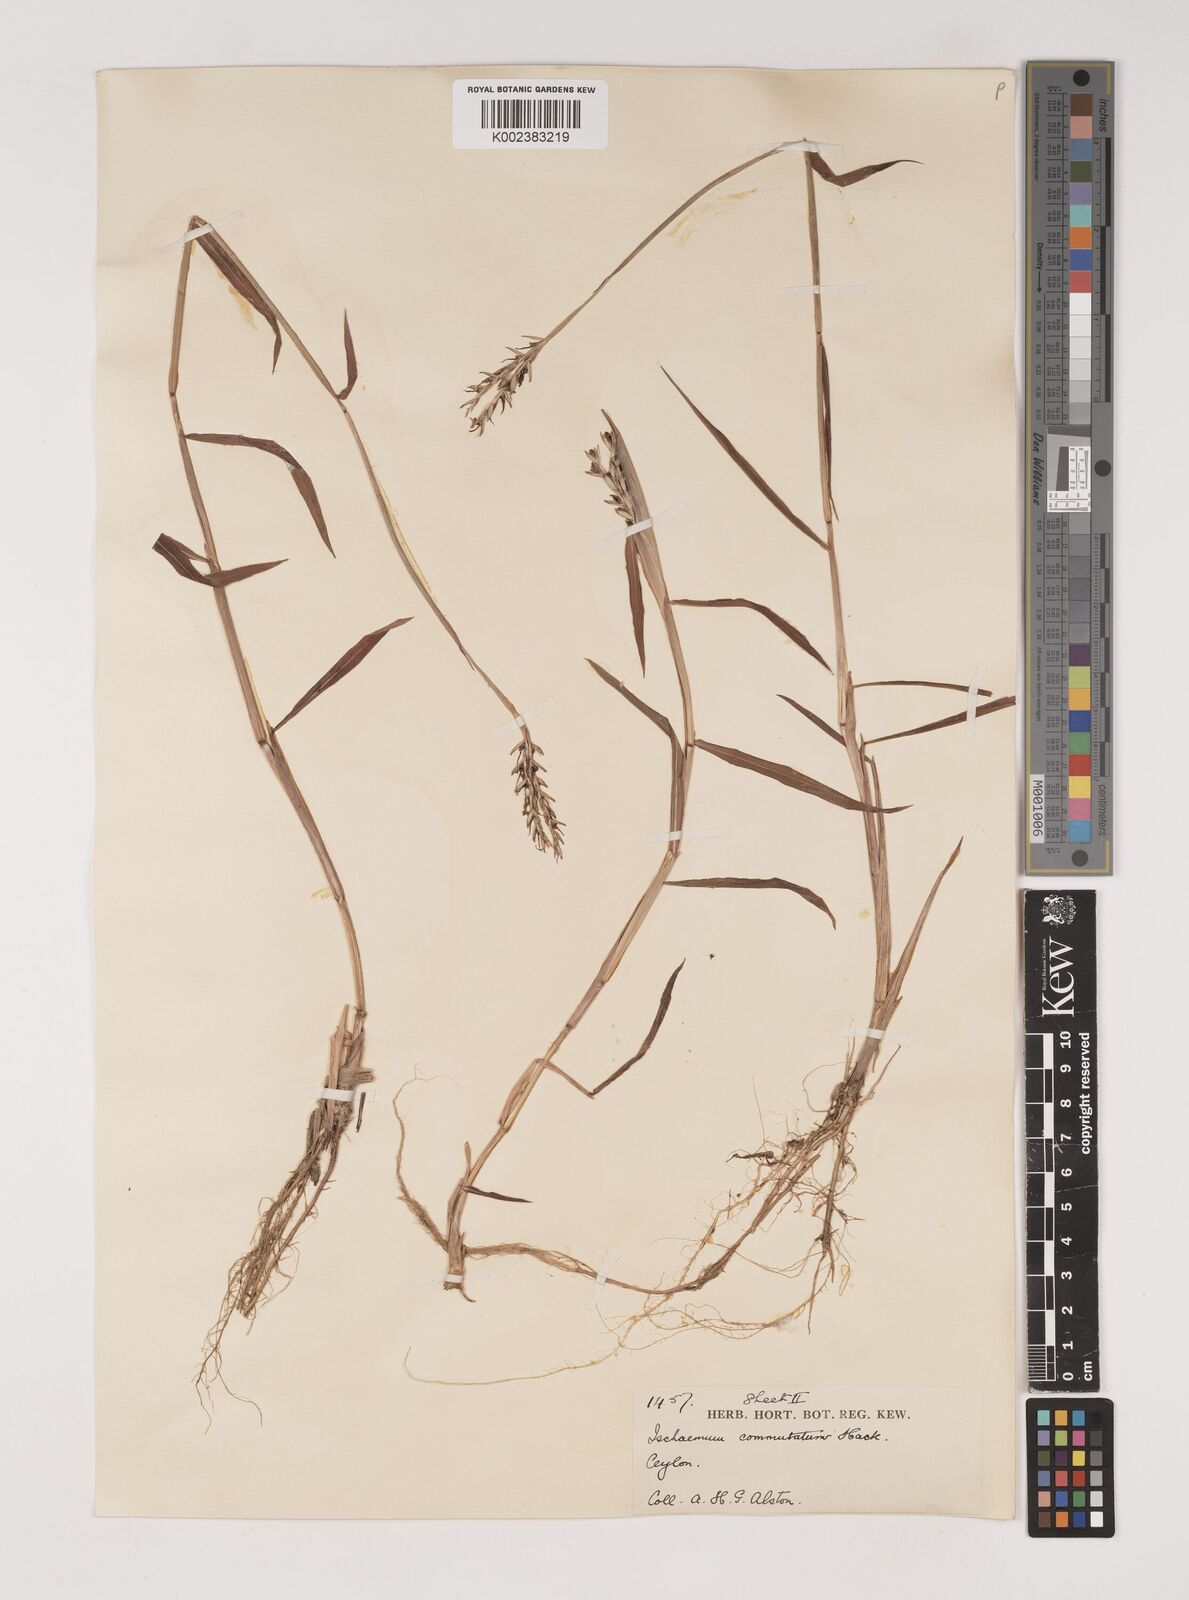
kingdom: Plantae
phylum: Tracheophyta
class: Liliopsida
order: Poales
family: Poaceae
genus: Ischaemum
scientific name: Ischaemum commutatum
